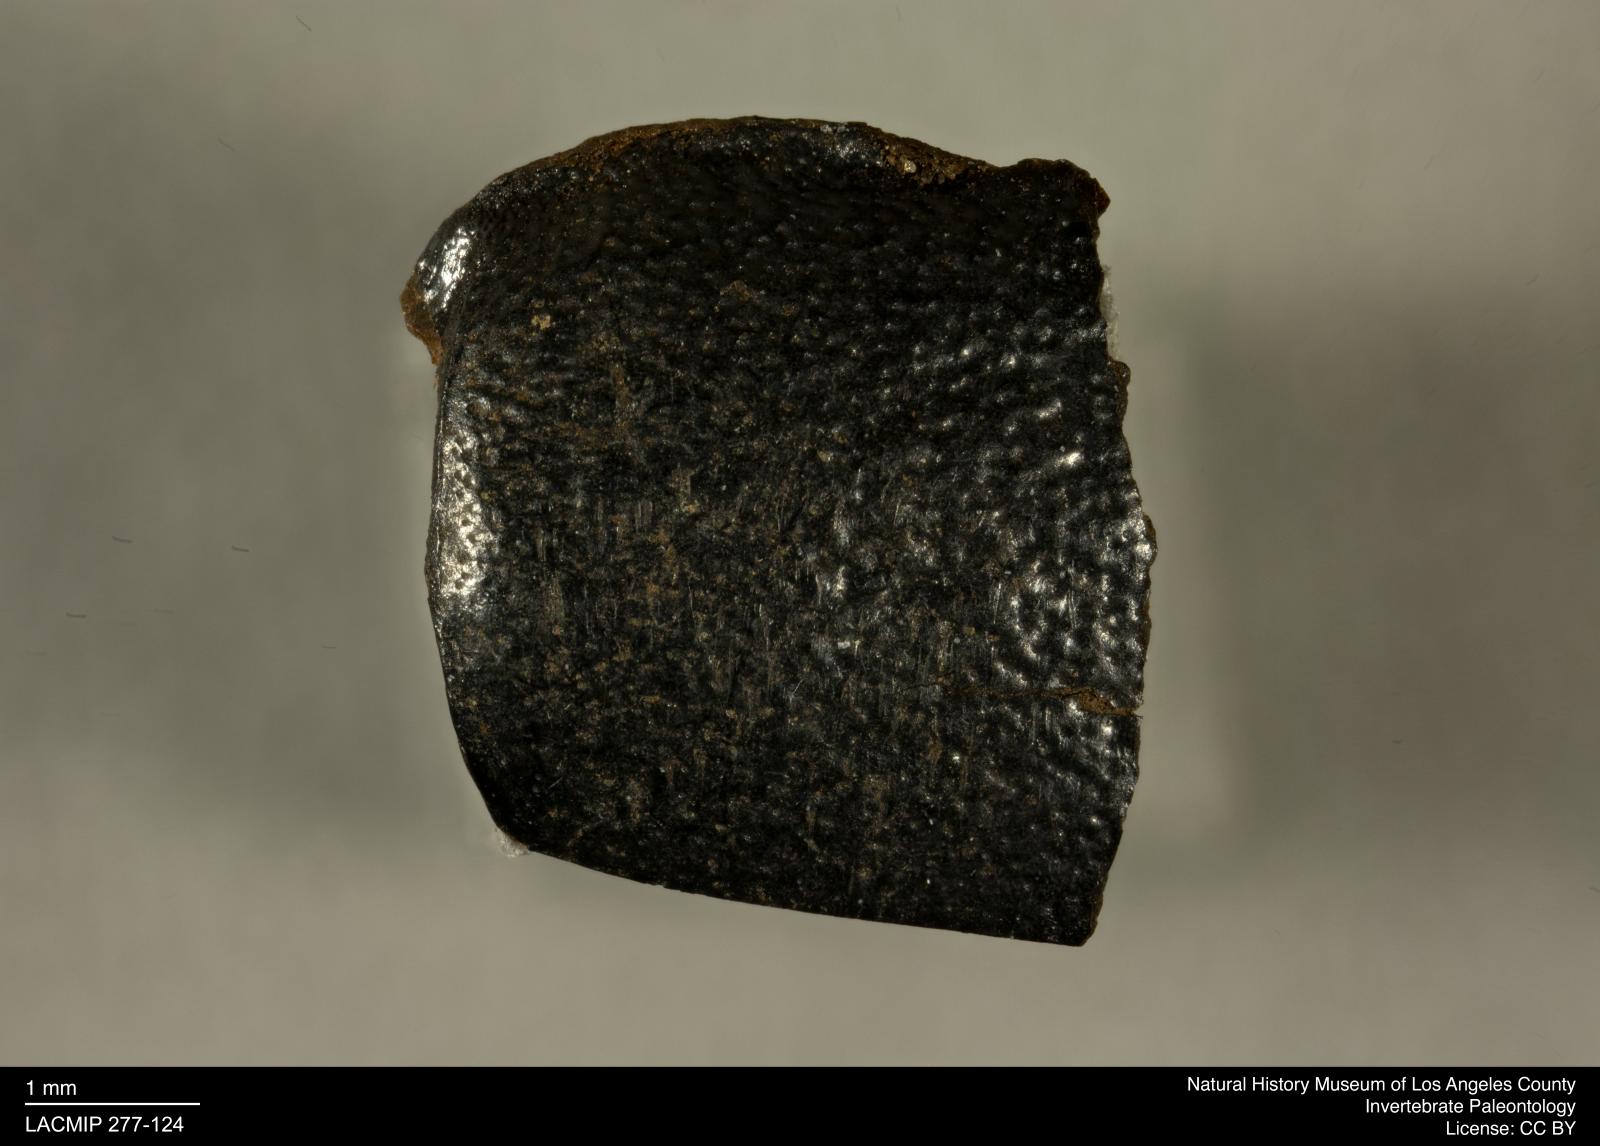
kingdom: Animalia
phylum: Arthropoda
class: Insecta
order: Coleoptera
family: Tenebrionidae
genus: Coniontis
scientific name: Coniontis abdominalis
